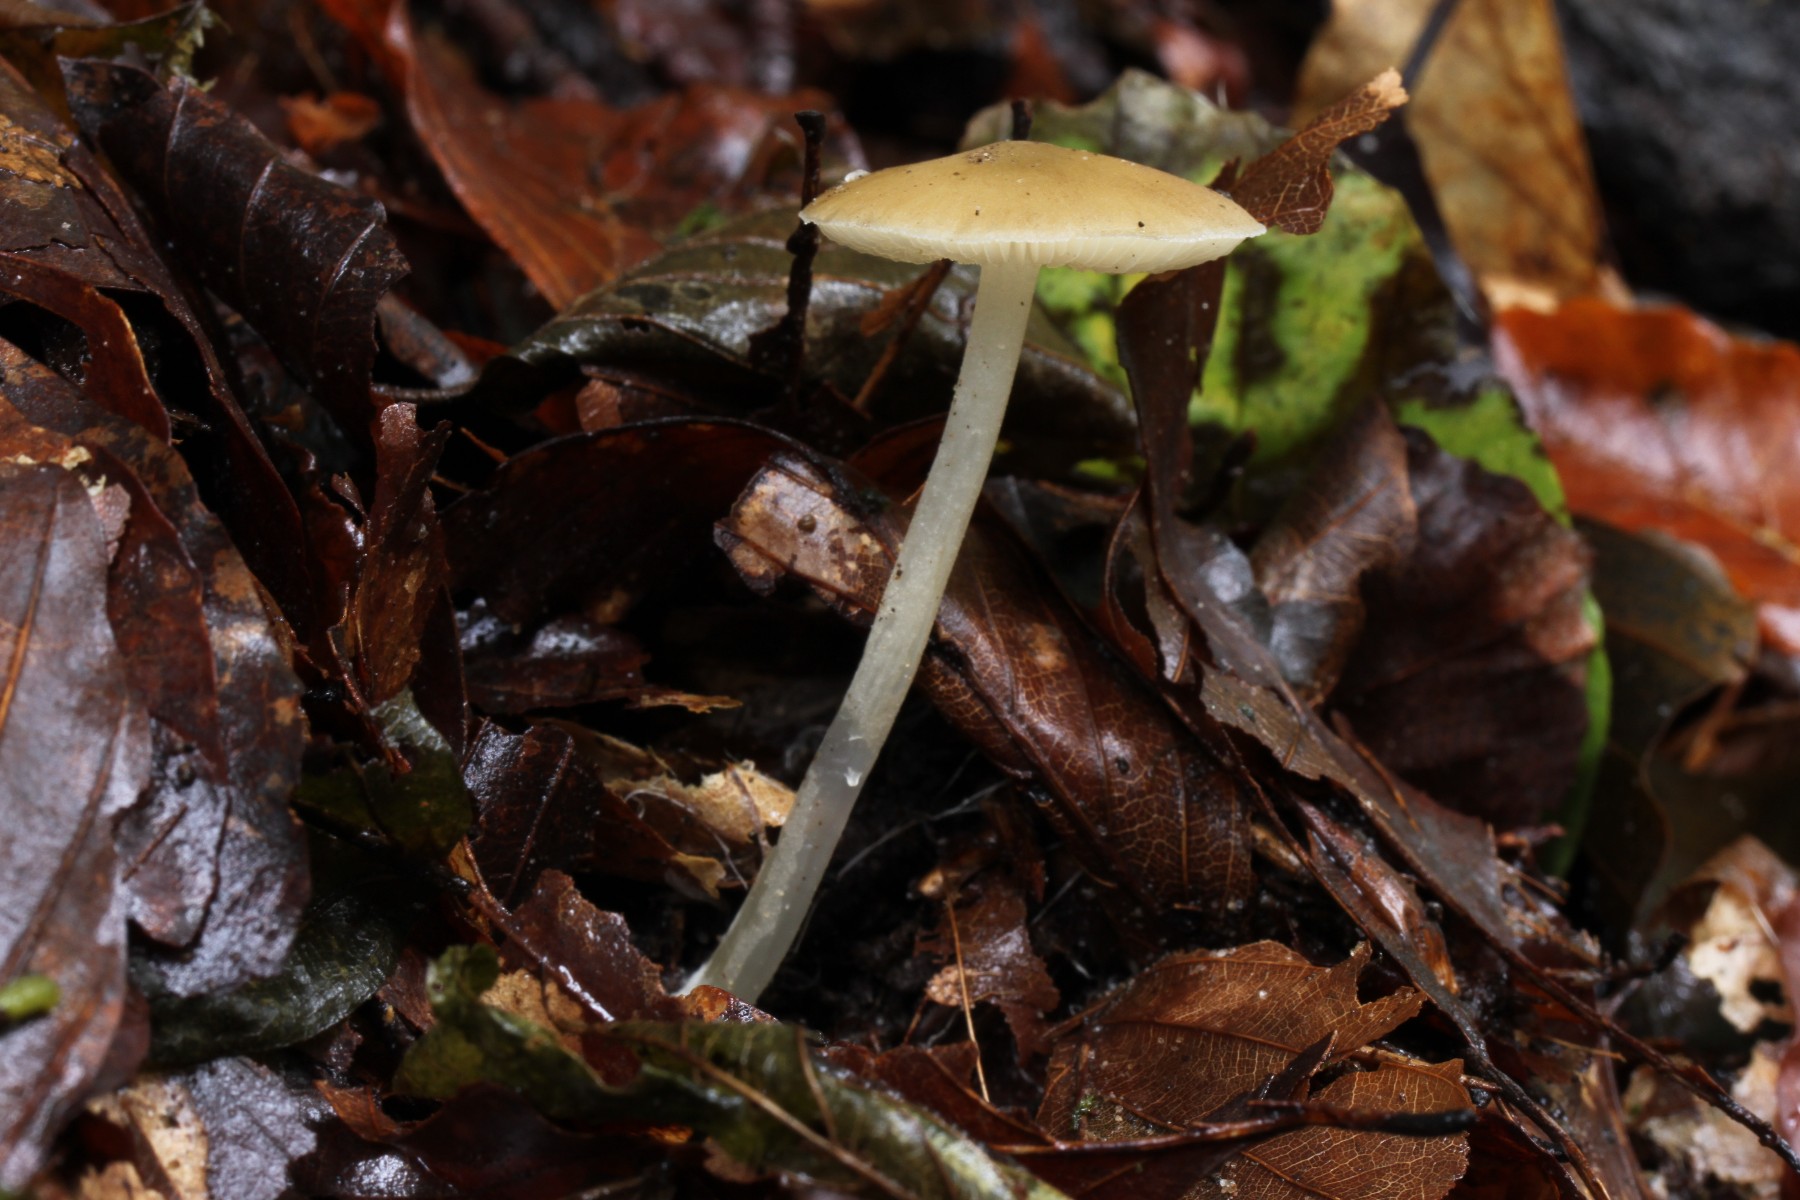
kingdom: Fungi
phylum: Basidiomycota
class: Agaricomycetes
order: Agaricales
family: Porotheleaceae
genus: Hydropodia
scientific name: Hydropodia subalpina
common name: vår-fnugfod
